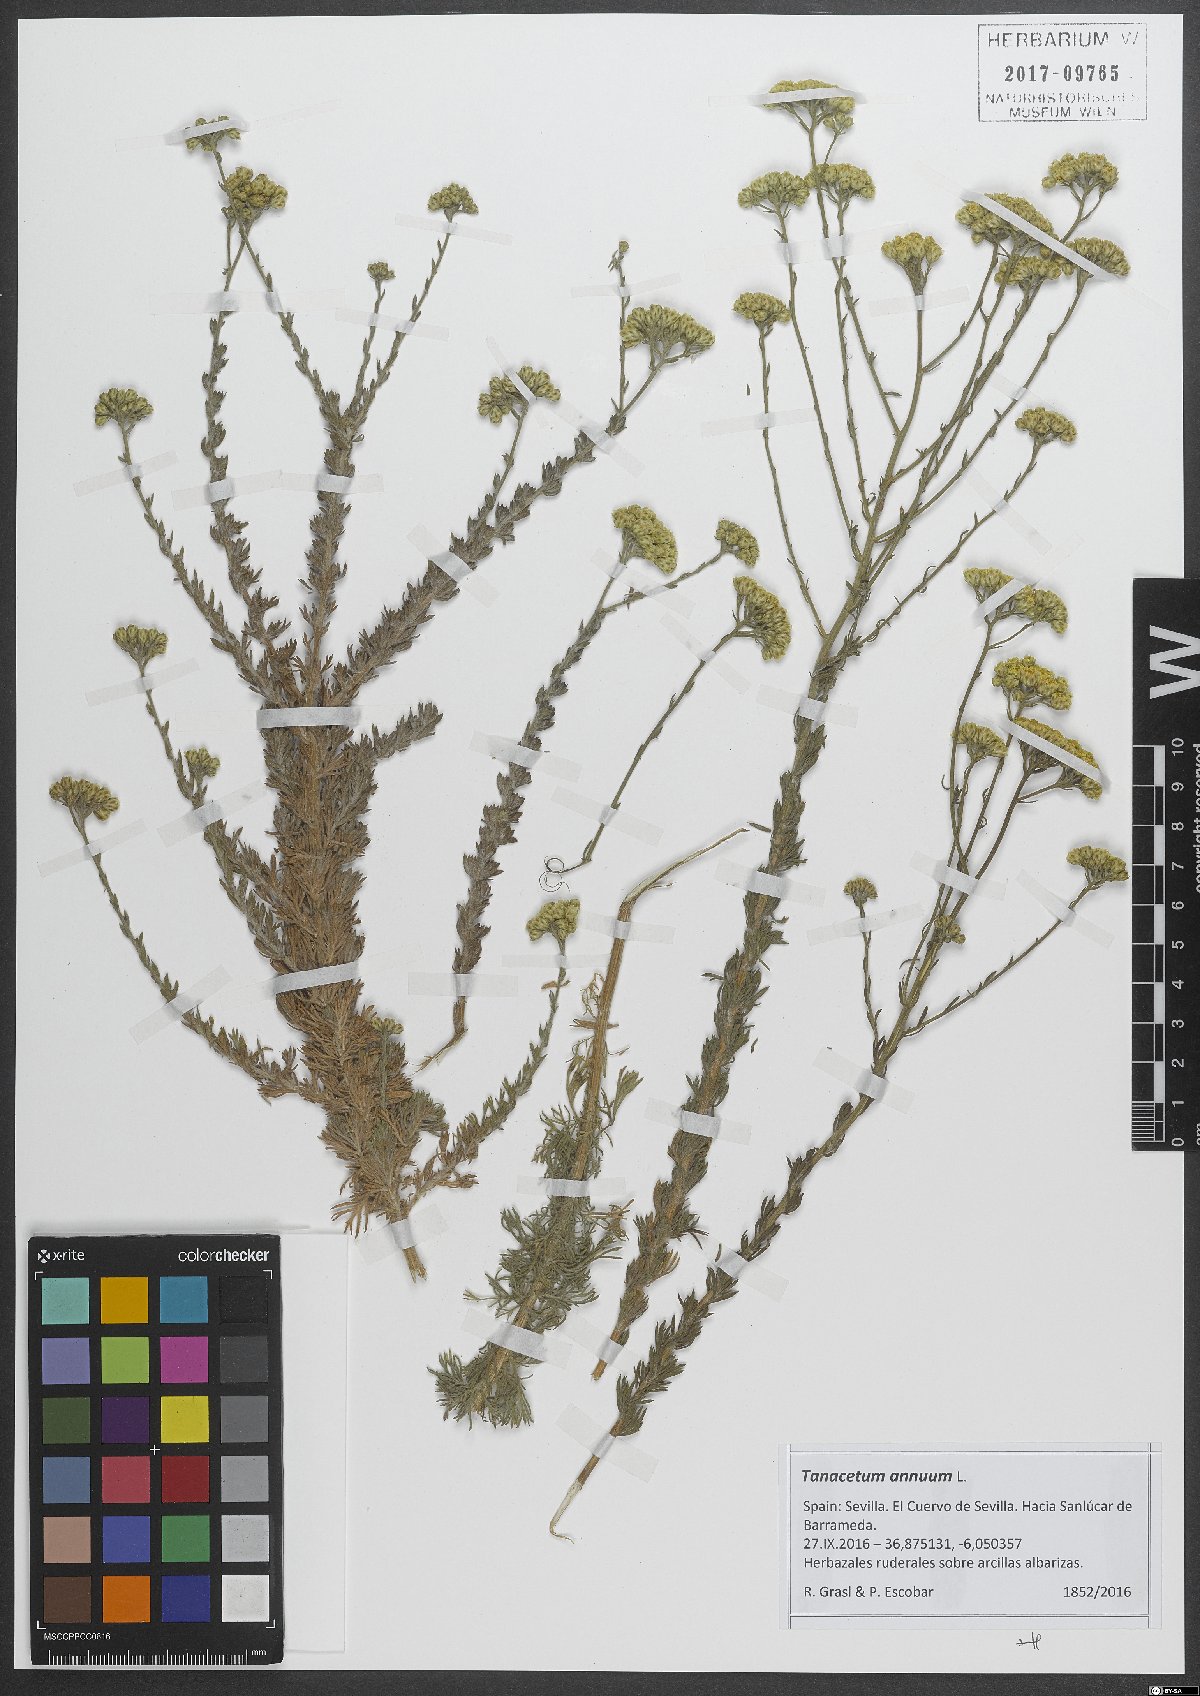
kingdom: Plantae
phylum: Tracheophyta
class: Magnoliopsida
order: Asterales
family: Asteraceae
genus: Vogtia
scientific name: Vogtia annua
